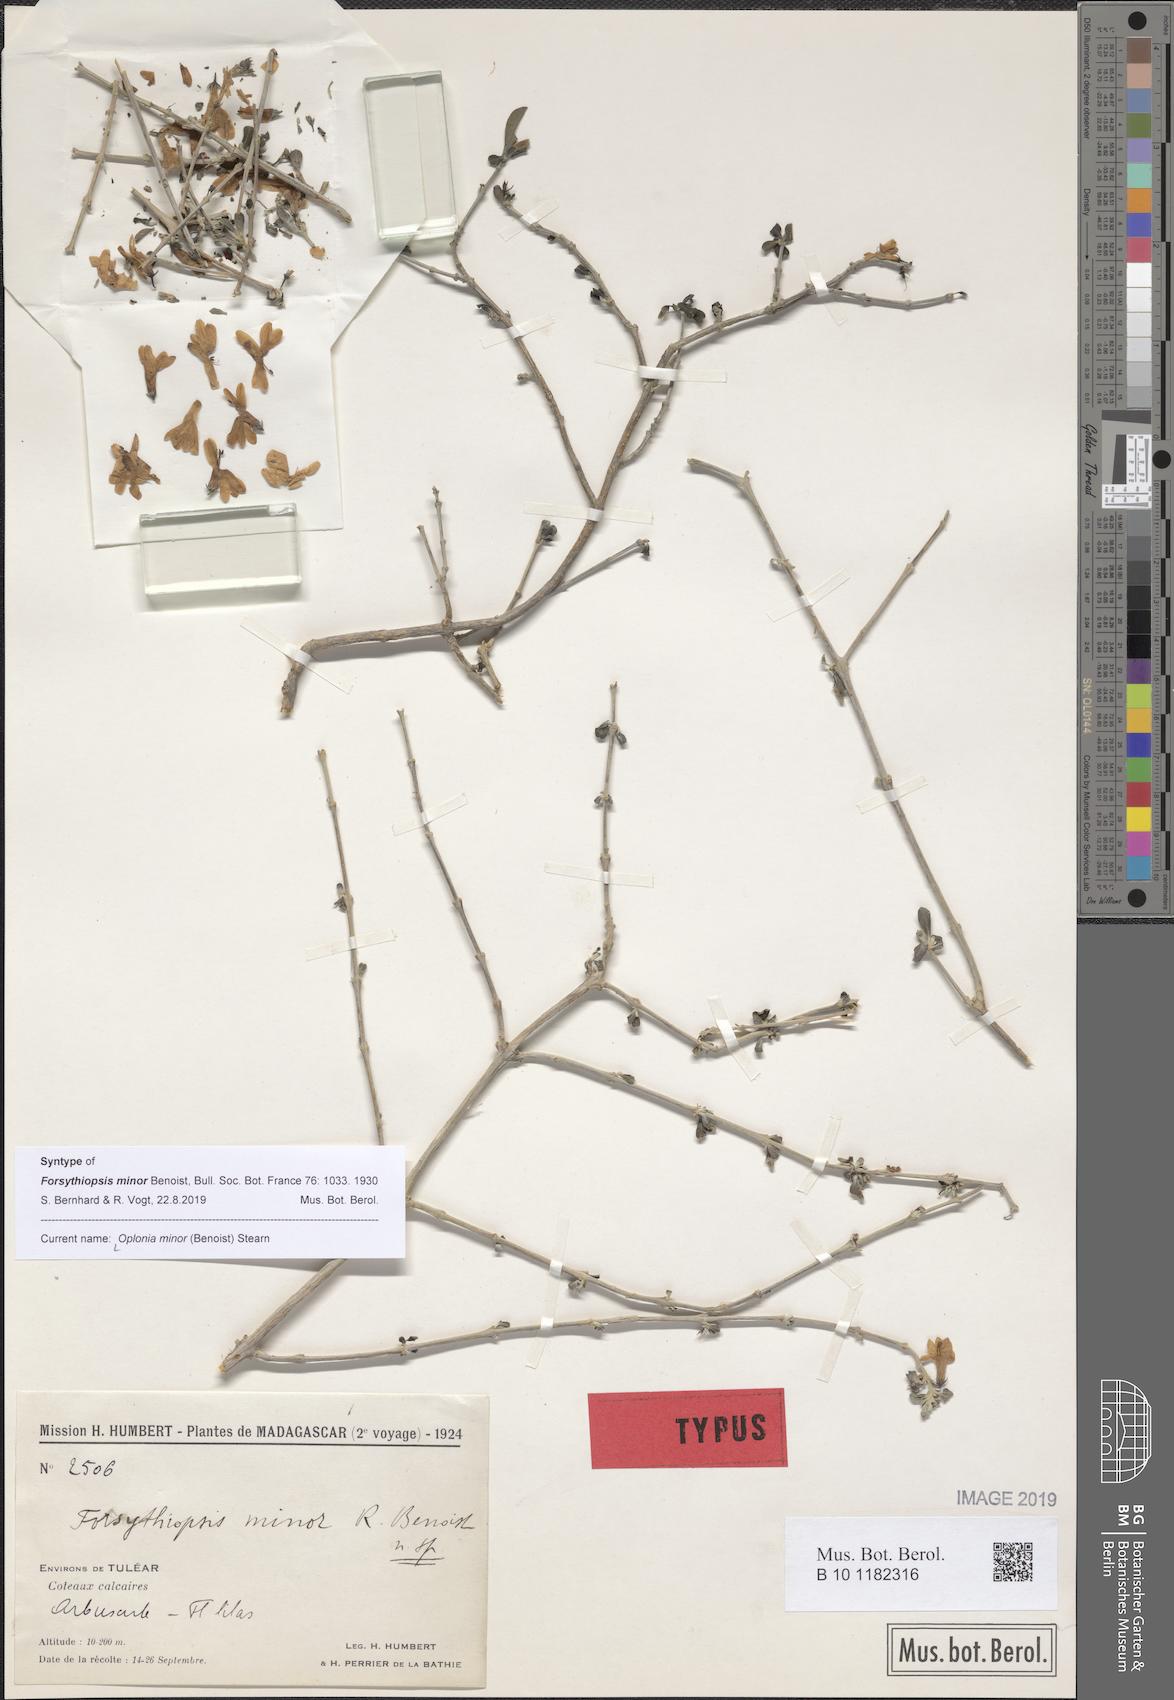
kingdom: Plantae
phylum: Tracheophyta
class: Magnoliopsida
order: Lamiales
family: Acanthaceae
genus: Oplonia
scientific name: Oplonia minor
